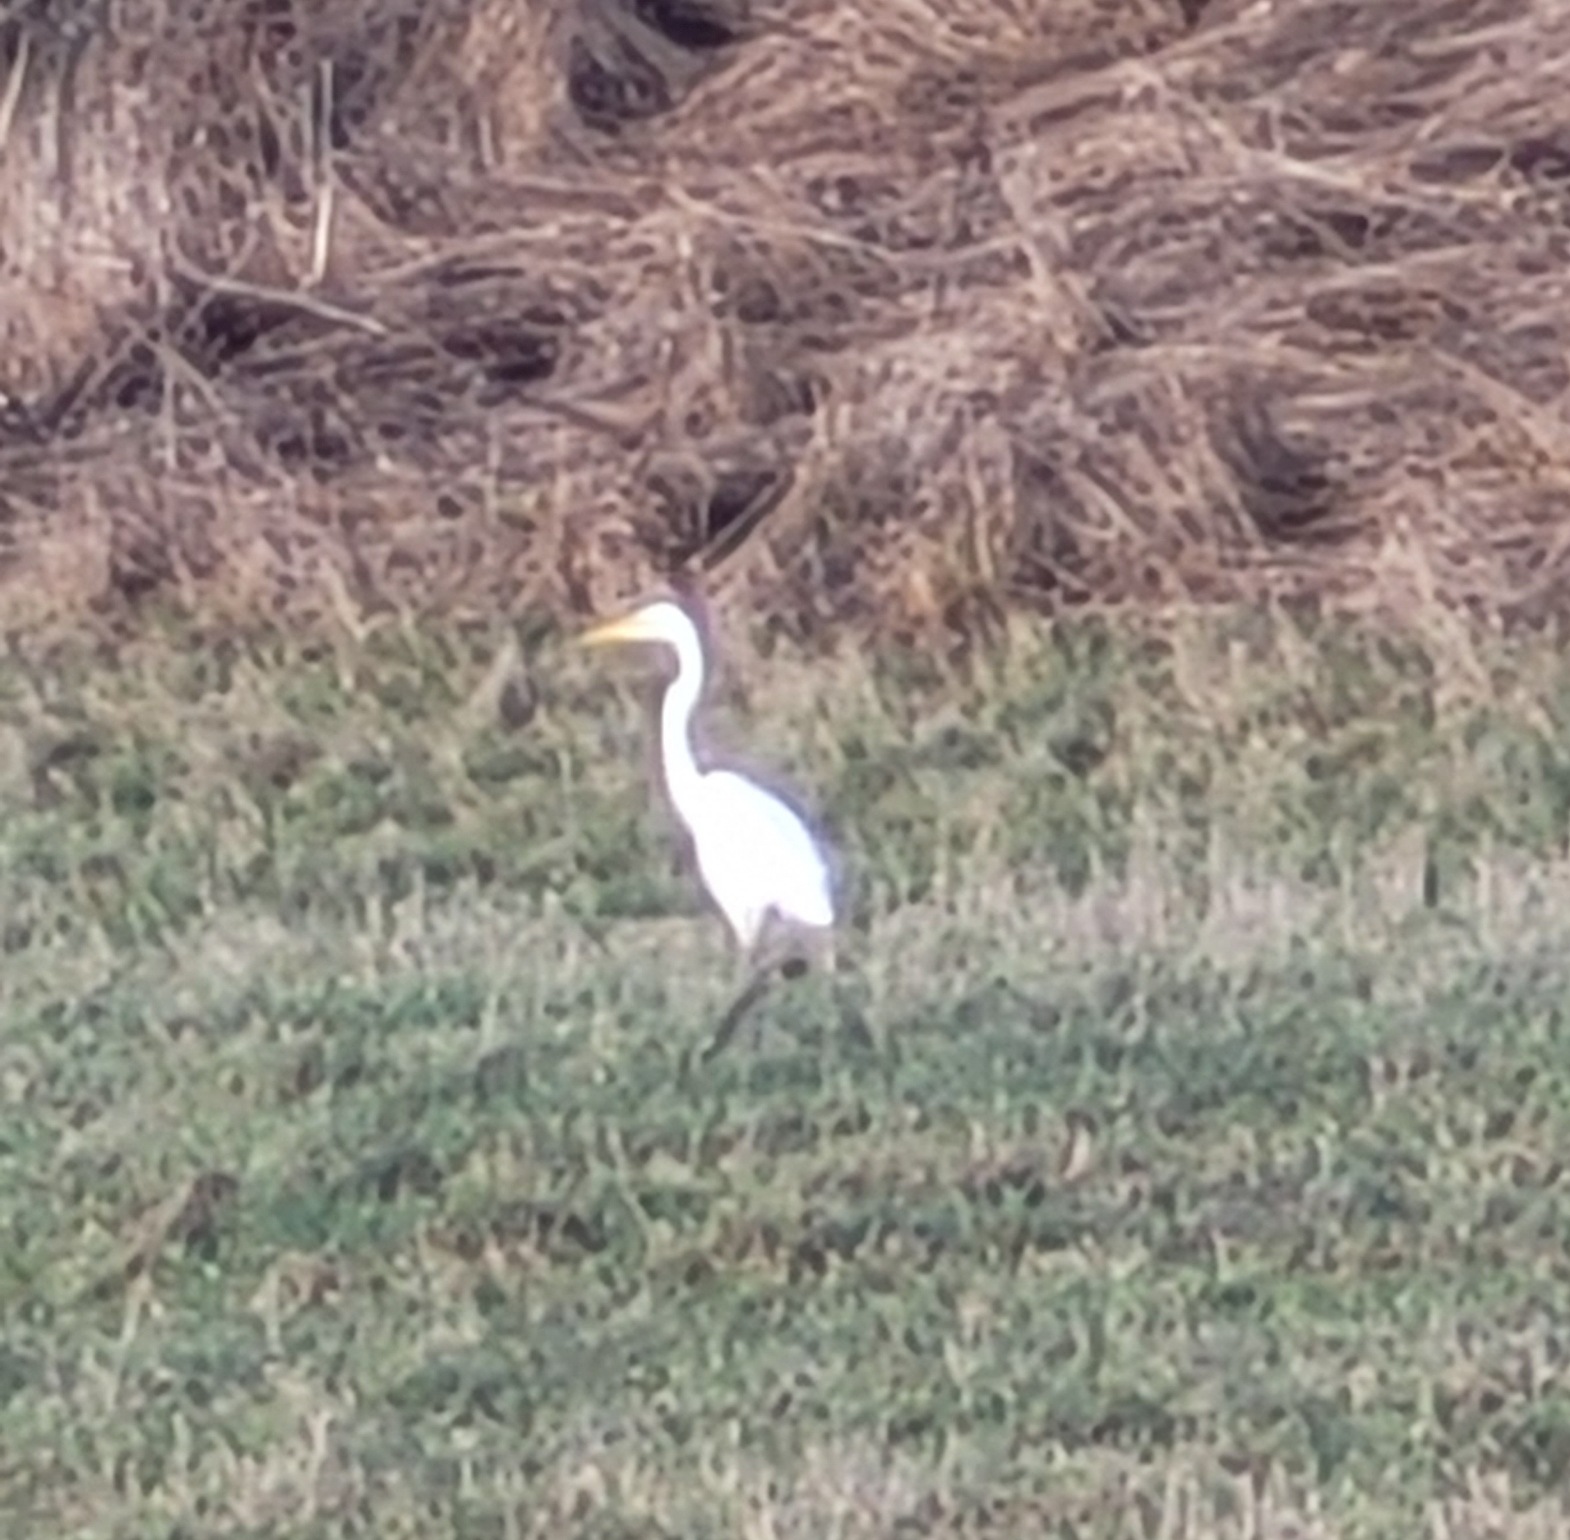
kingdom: Animalia
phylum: Chordata
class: Aves
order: Pelecaniformes
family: Ardeidae
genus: Ardea
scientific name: Ardea alba
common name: Sølvhejre
